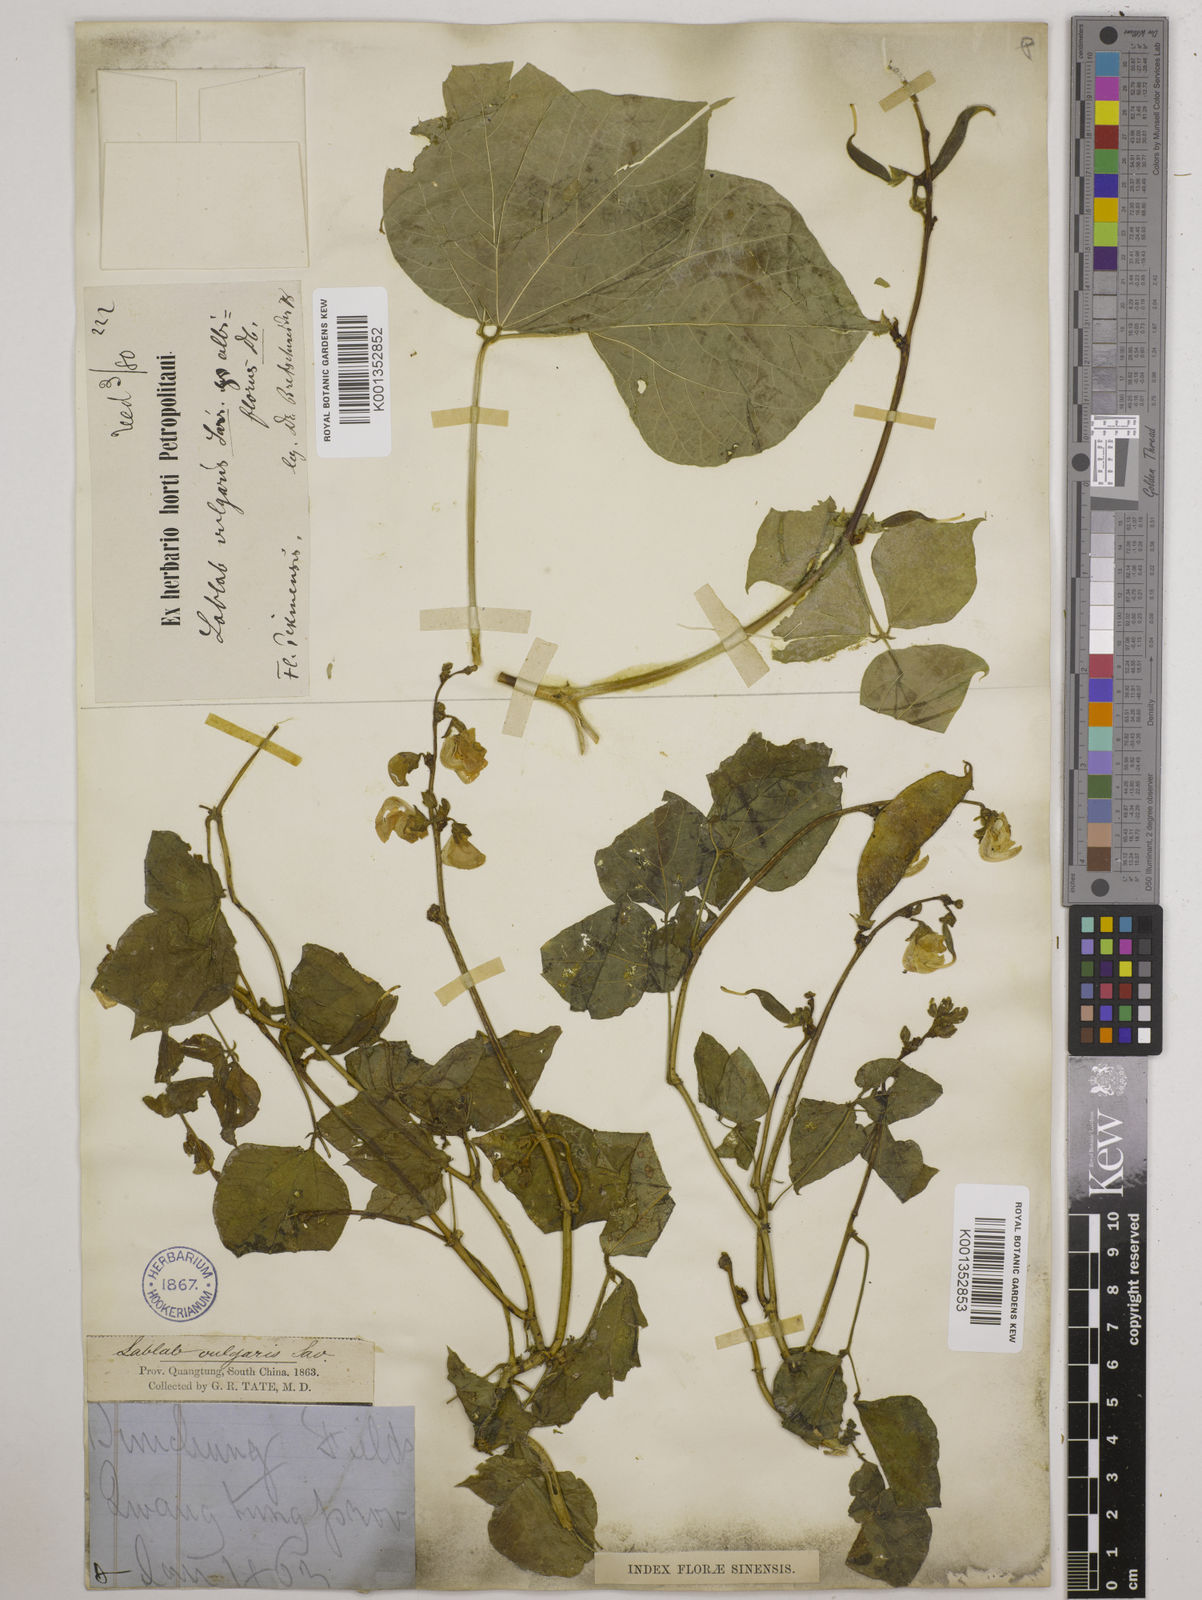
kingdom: Plantae
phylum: Tracheophyta
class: Magnoliopsida
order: Fabales
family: Fabaceae
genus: Lablab
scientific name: Lablab purpureus
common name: Lablab-bean
